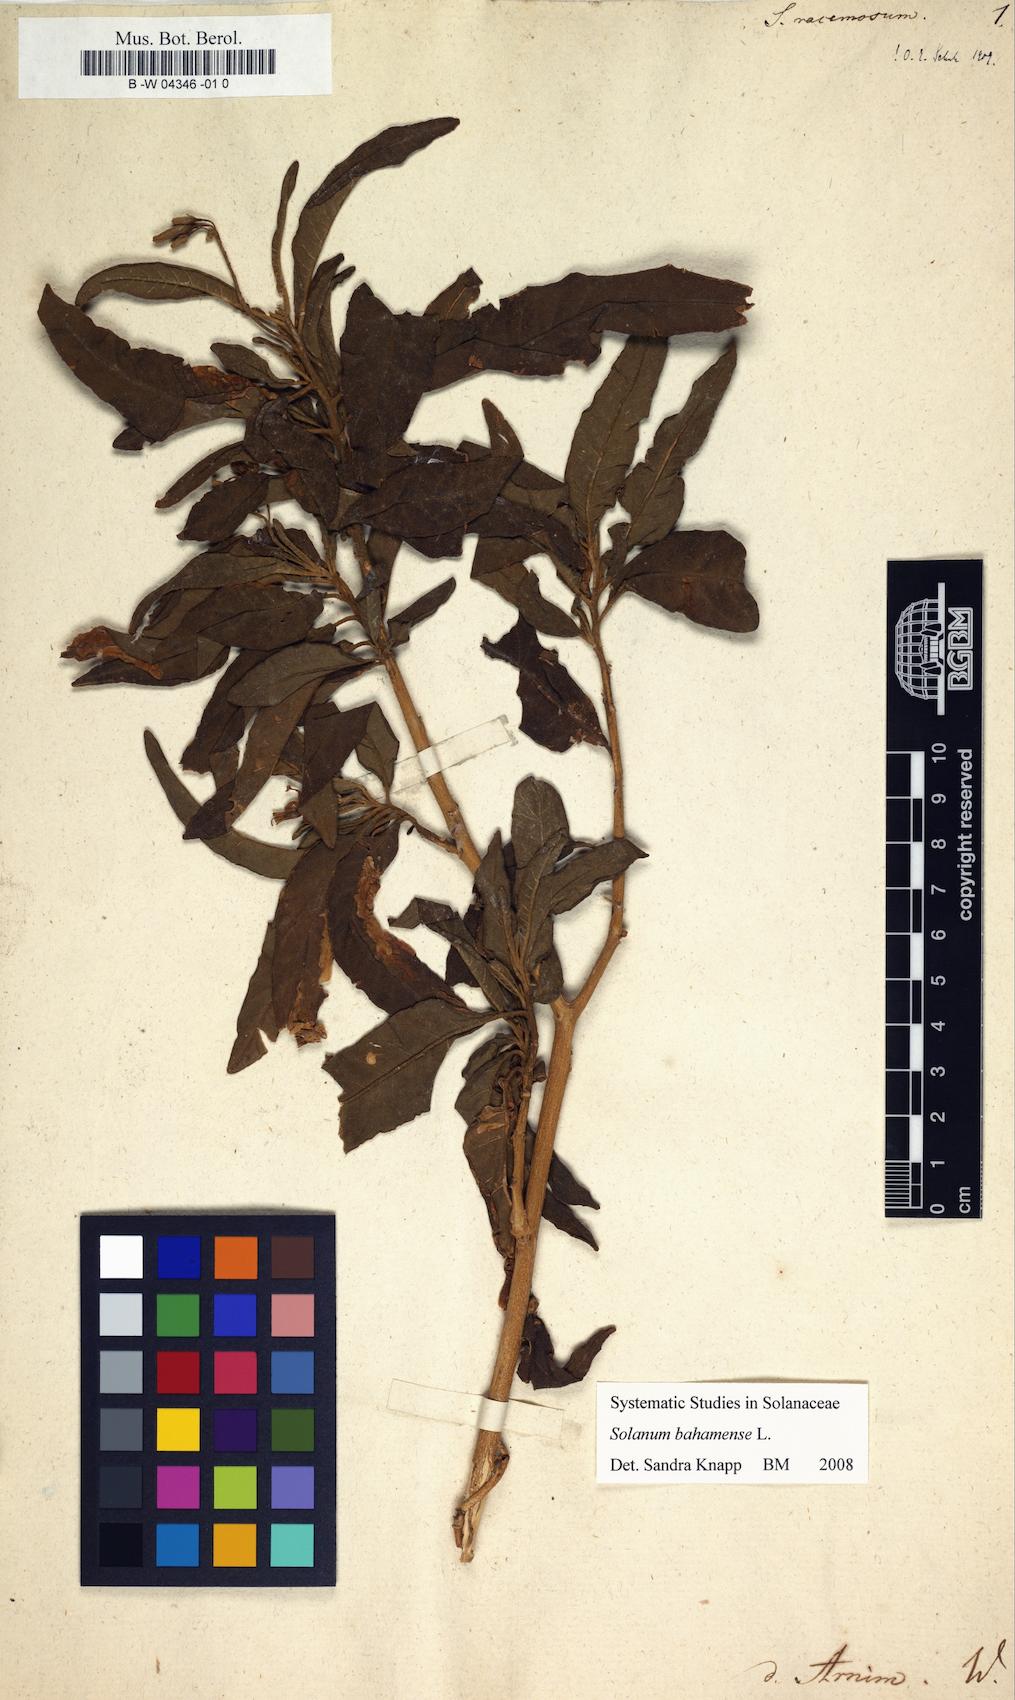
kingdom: Plantae
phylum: Tracheophyta
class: Magnoliopsida
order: Solanales
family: Solanaceae
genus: Solanum
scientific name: Solanum
